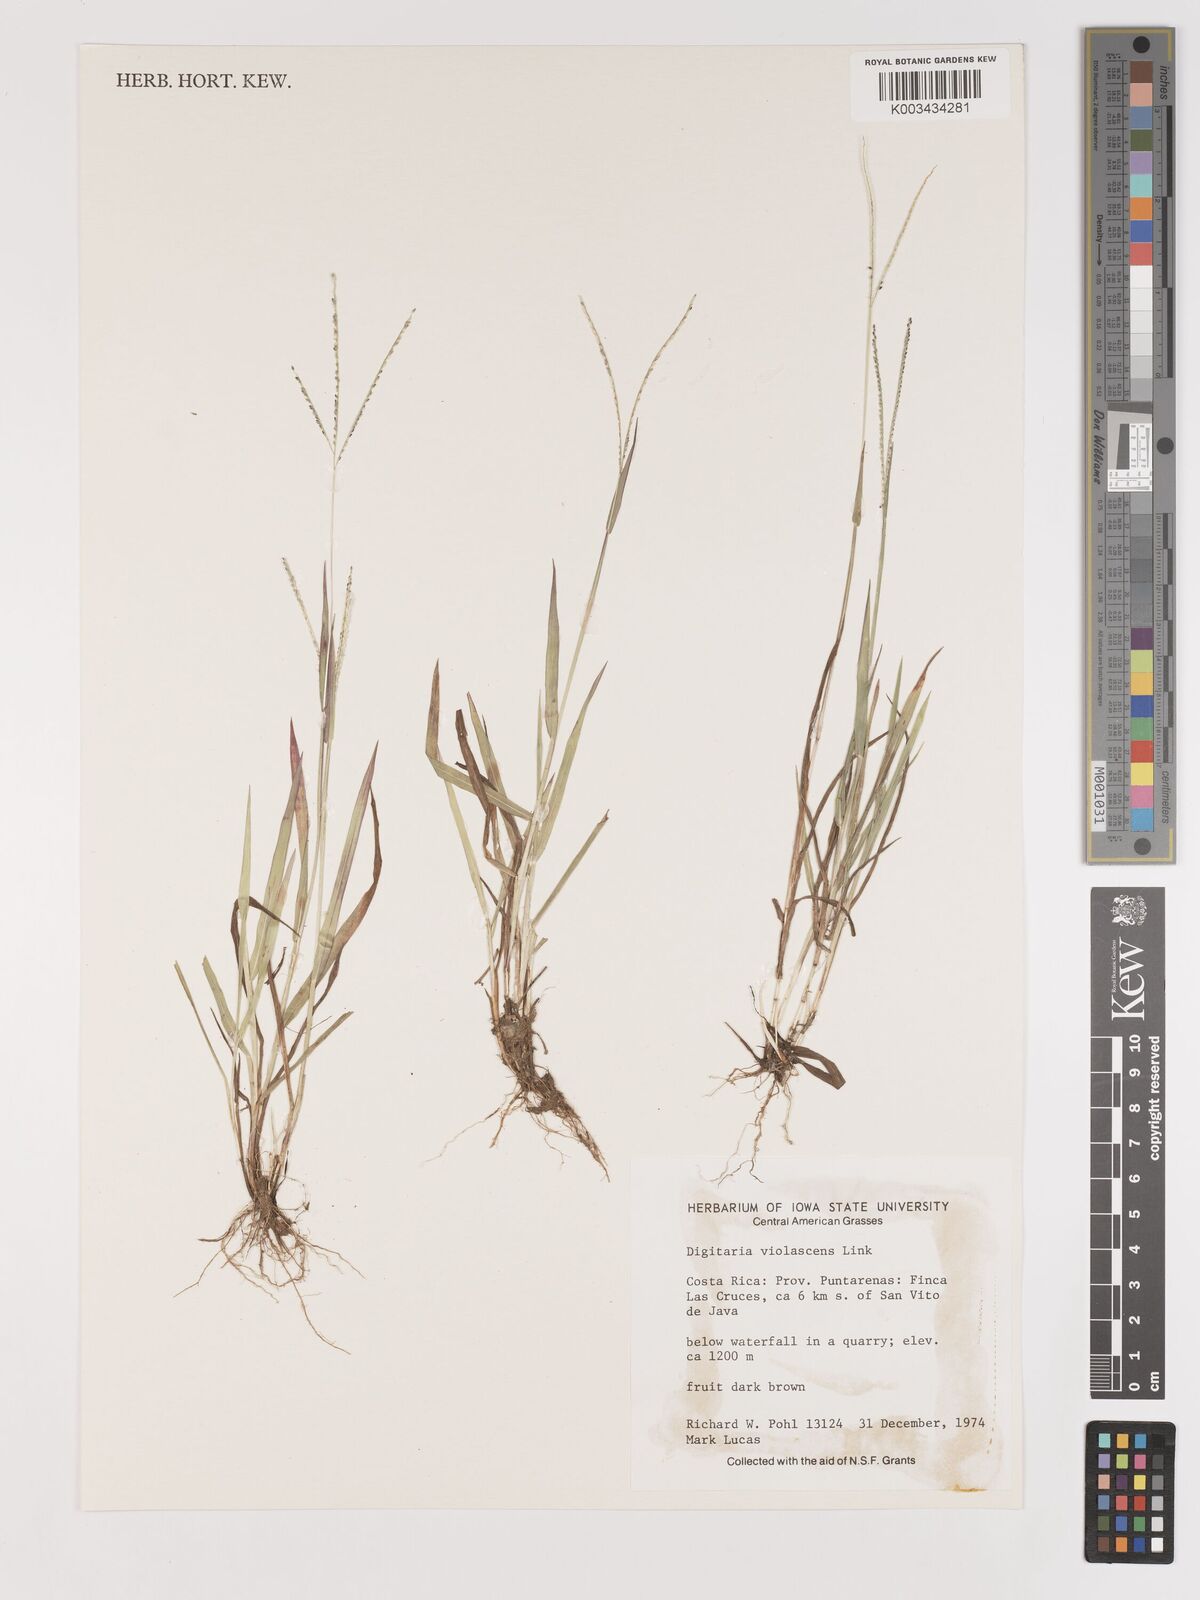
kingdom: Plantae
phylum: Tracheophyta
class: Liliopsida
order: Poales
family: Poaceae
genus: Digitaria
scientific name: Digitaria violascens
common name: Violet crabgrass
